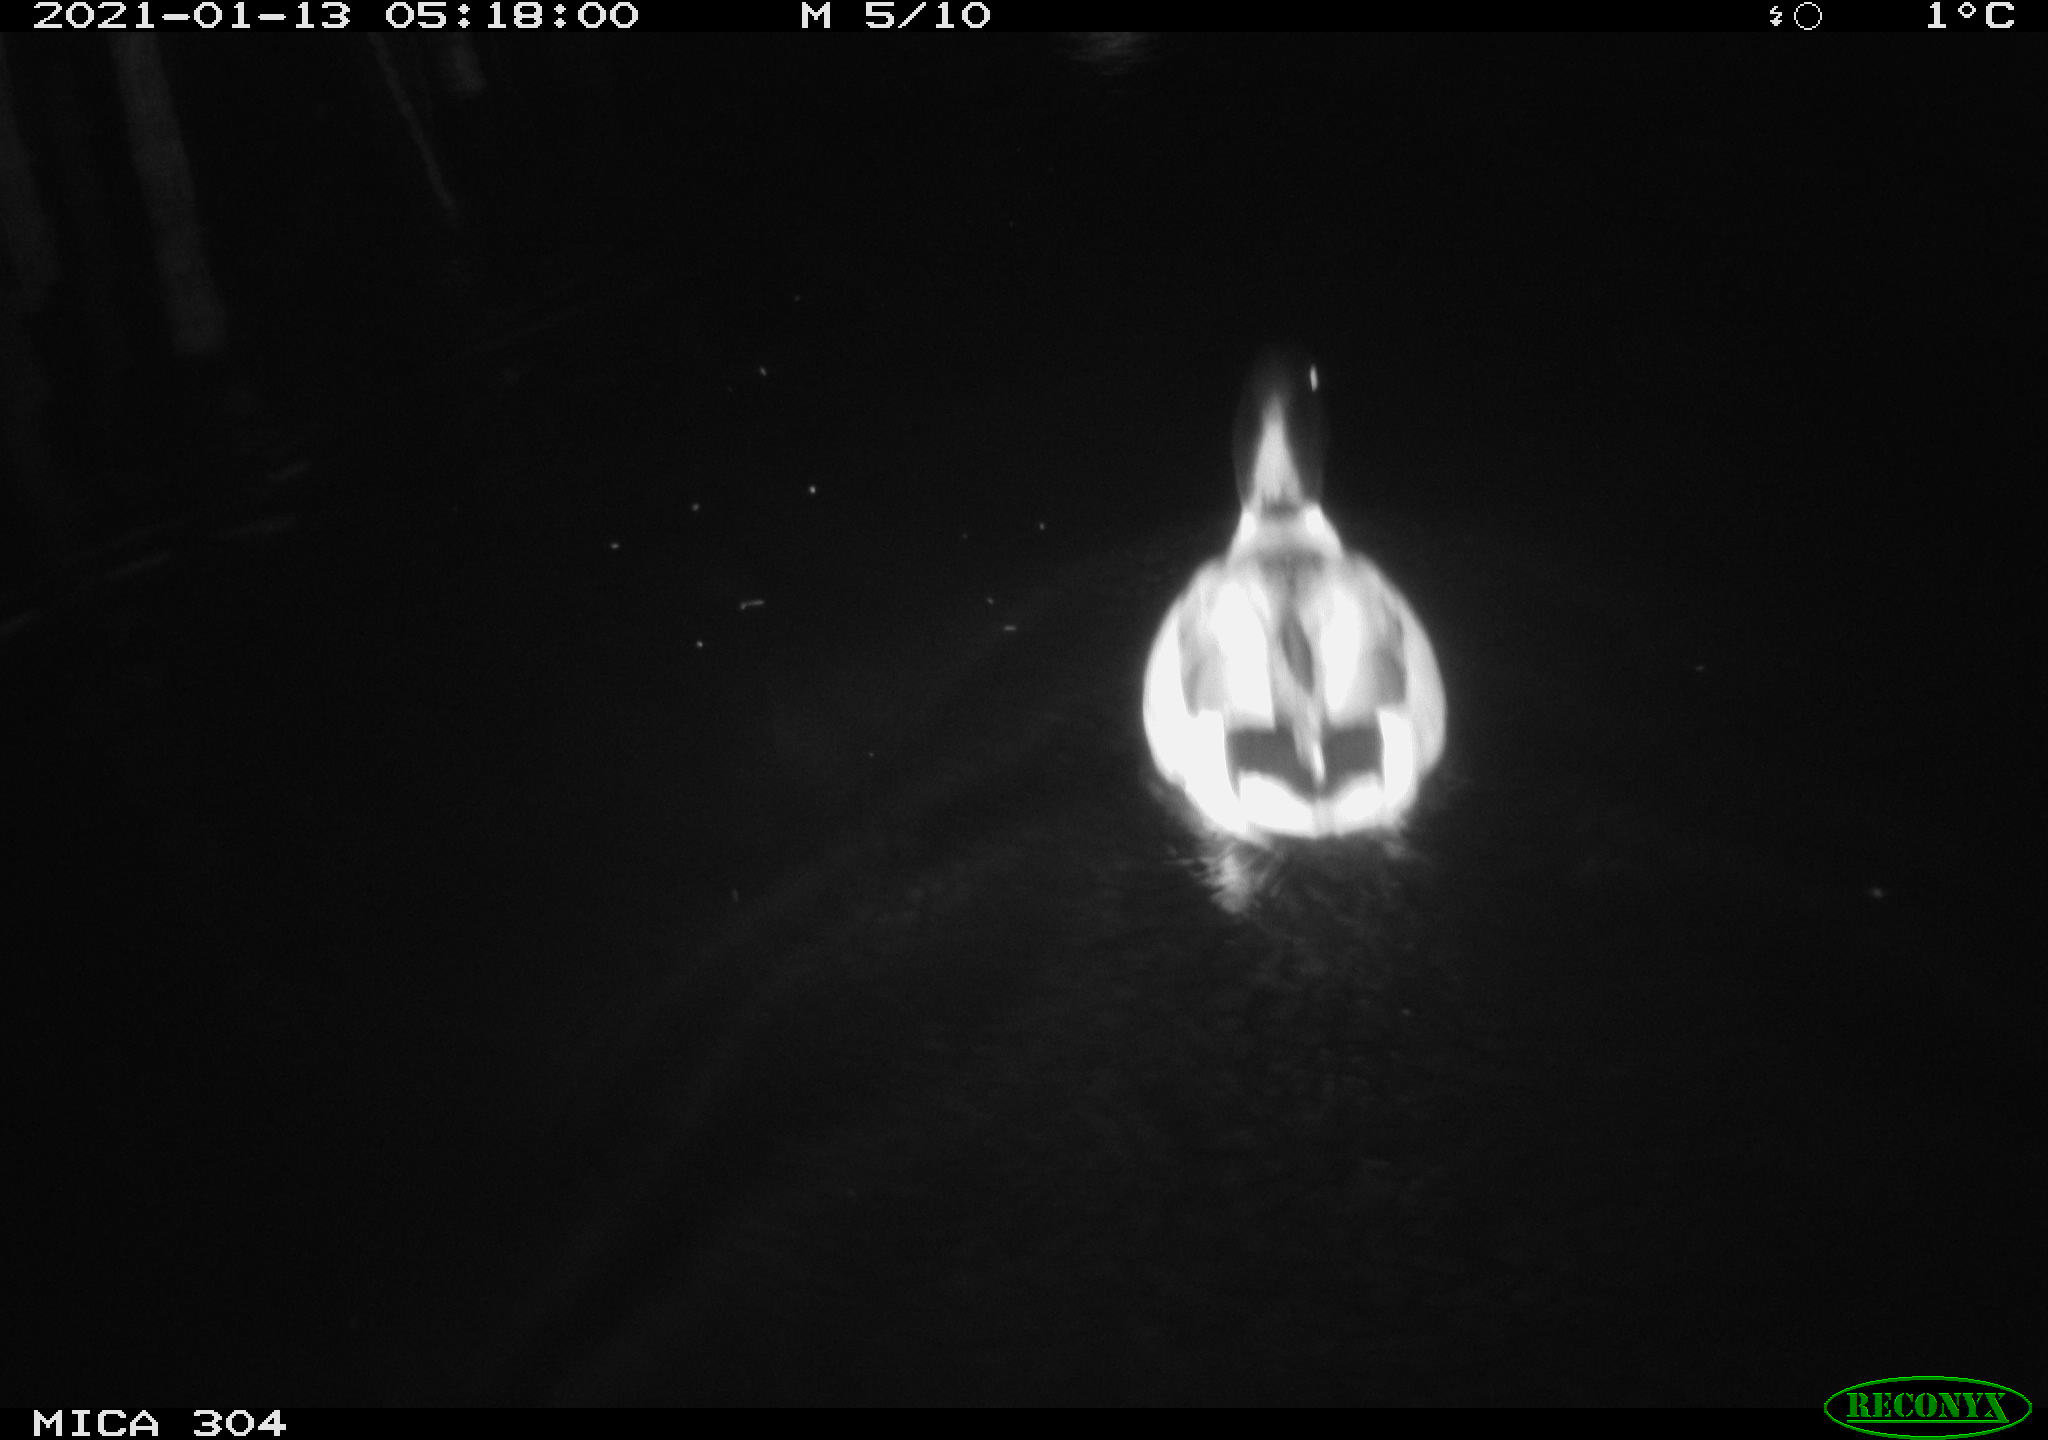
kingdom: Animalia
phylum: Chordata
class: Aves
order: Anseriformes
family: Anatidae
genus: Anas
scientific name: Anas platyrhynchos
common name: Mallard
